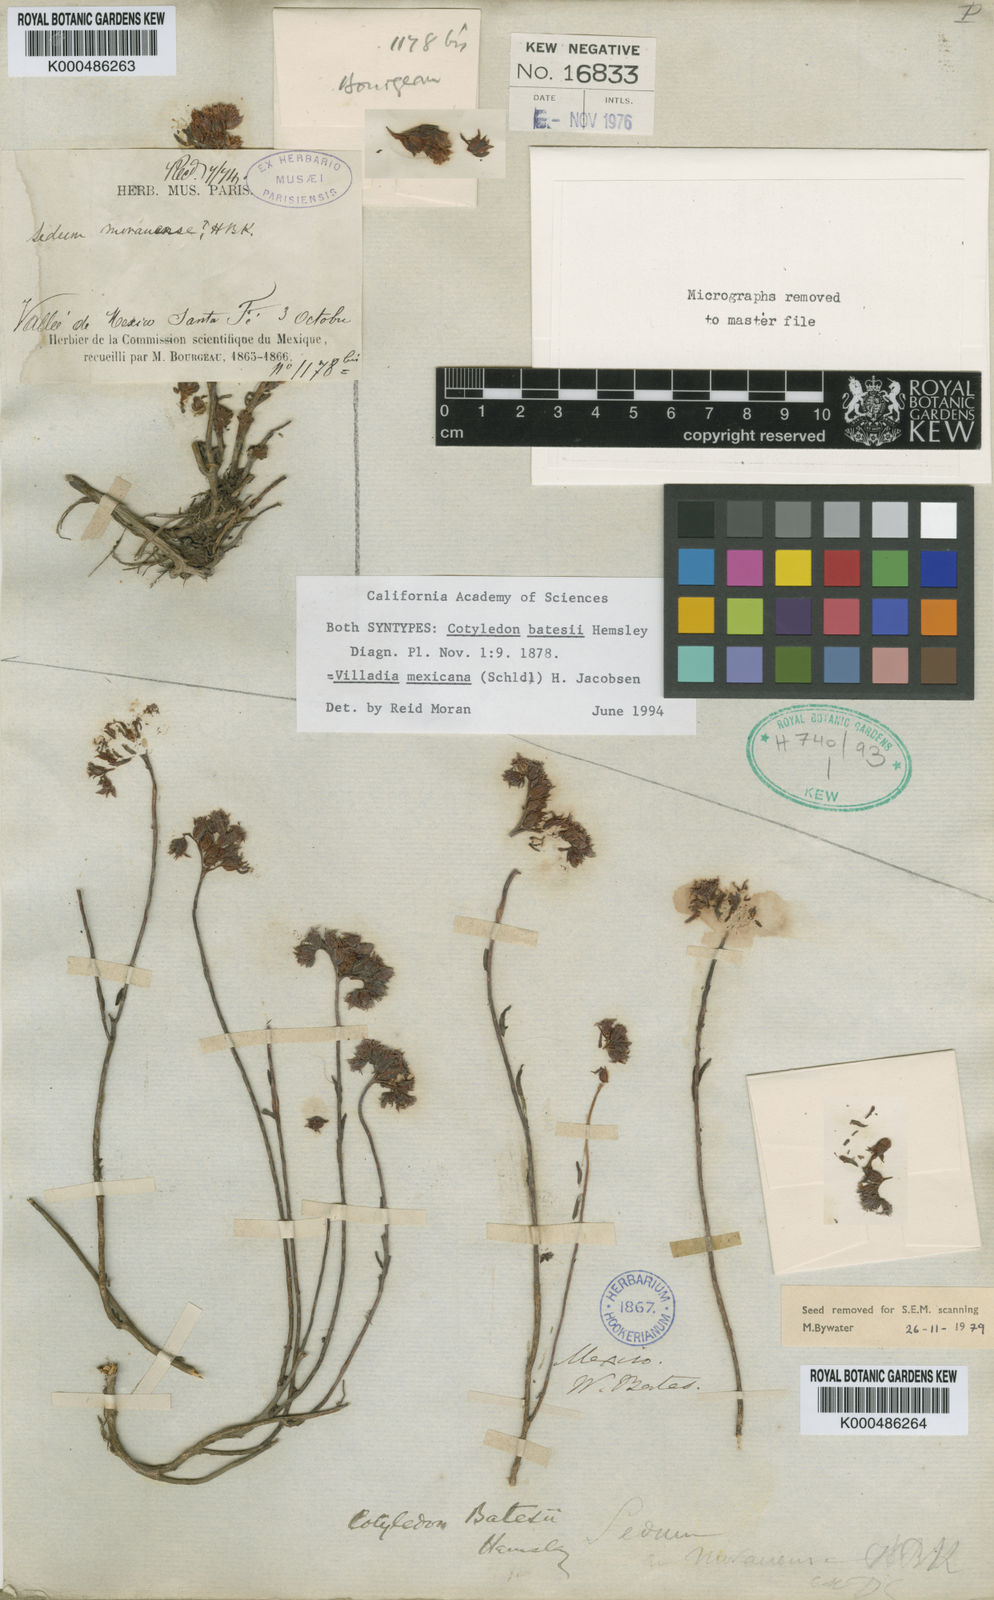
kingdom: Plantae
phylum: Tracheophyta
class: Magnoliopsida
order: Saxifragales
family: Crassulaceae
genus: Sedum
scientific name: Sedum goldmanii
